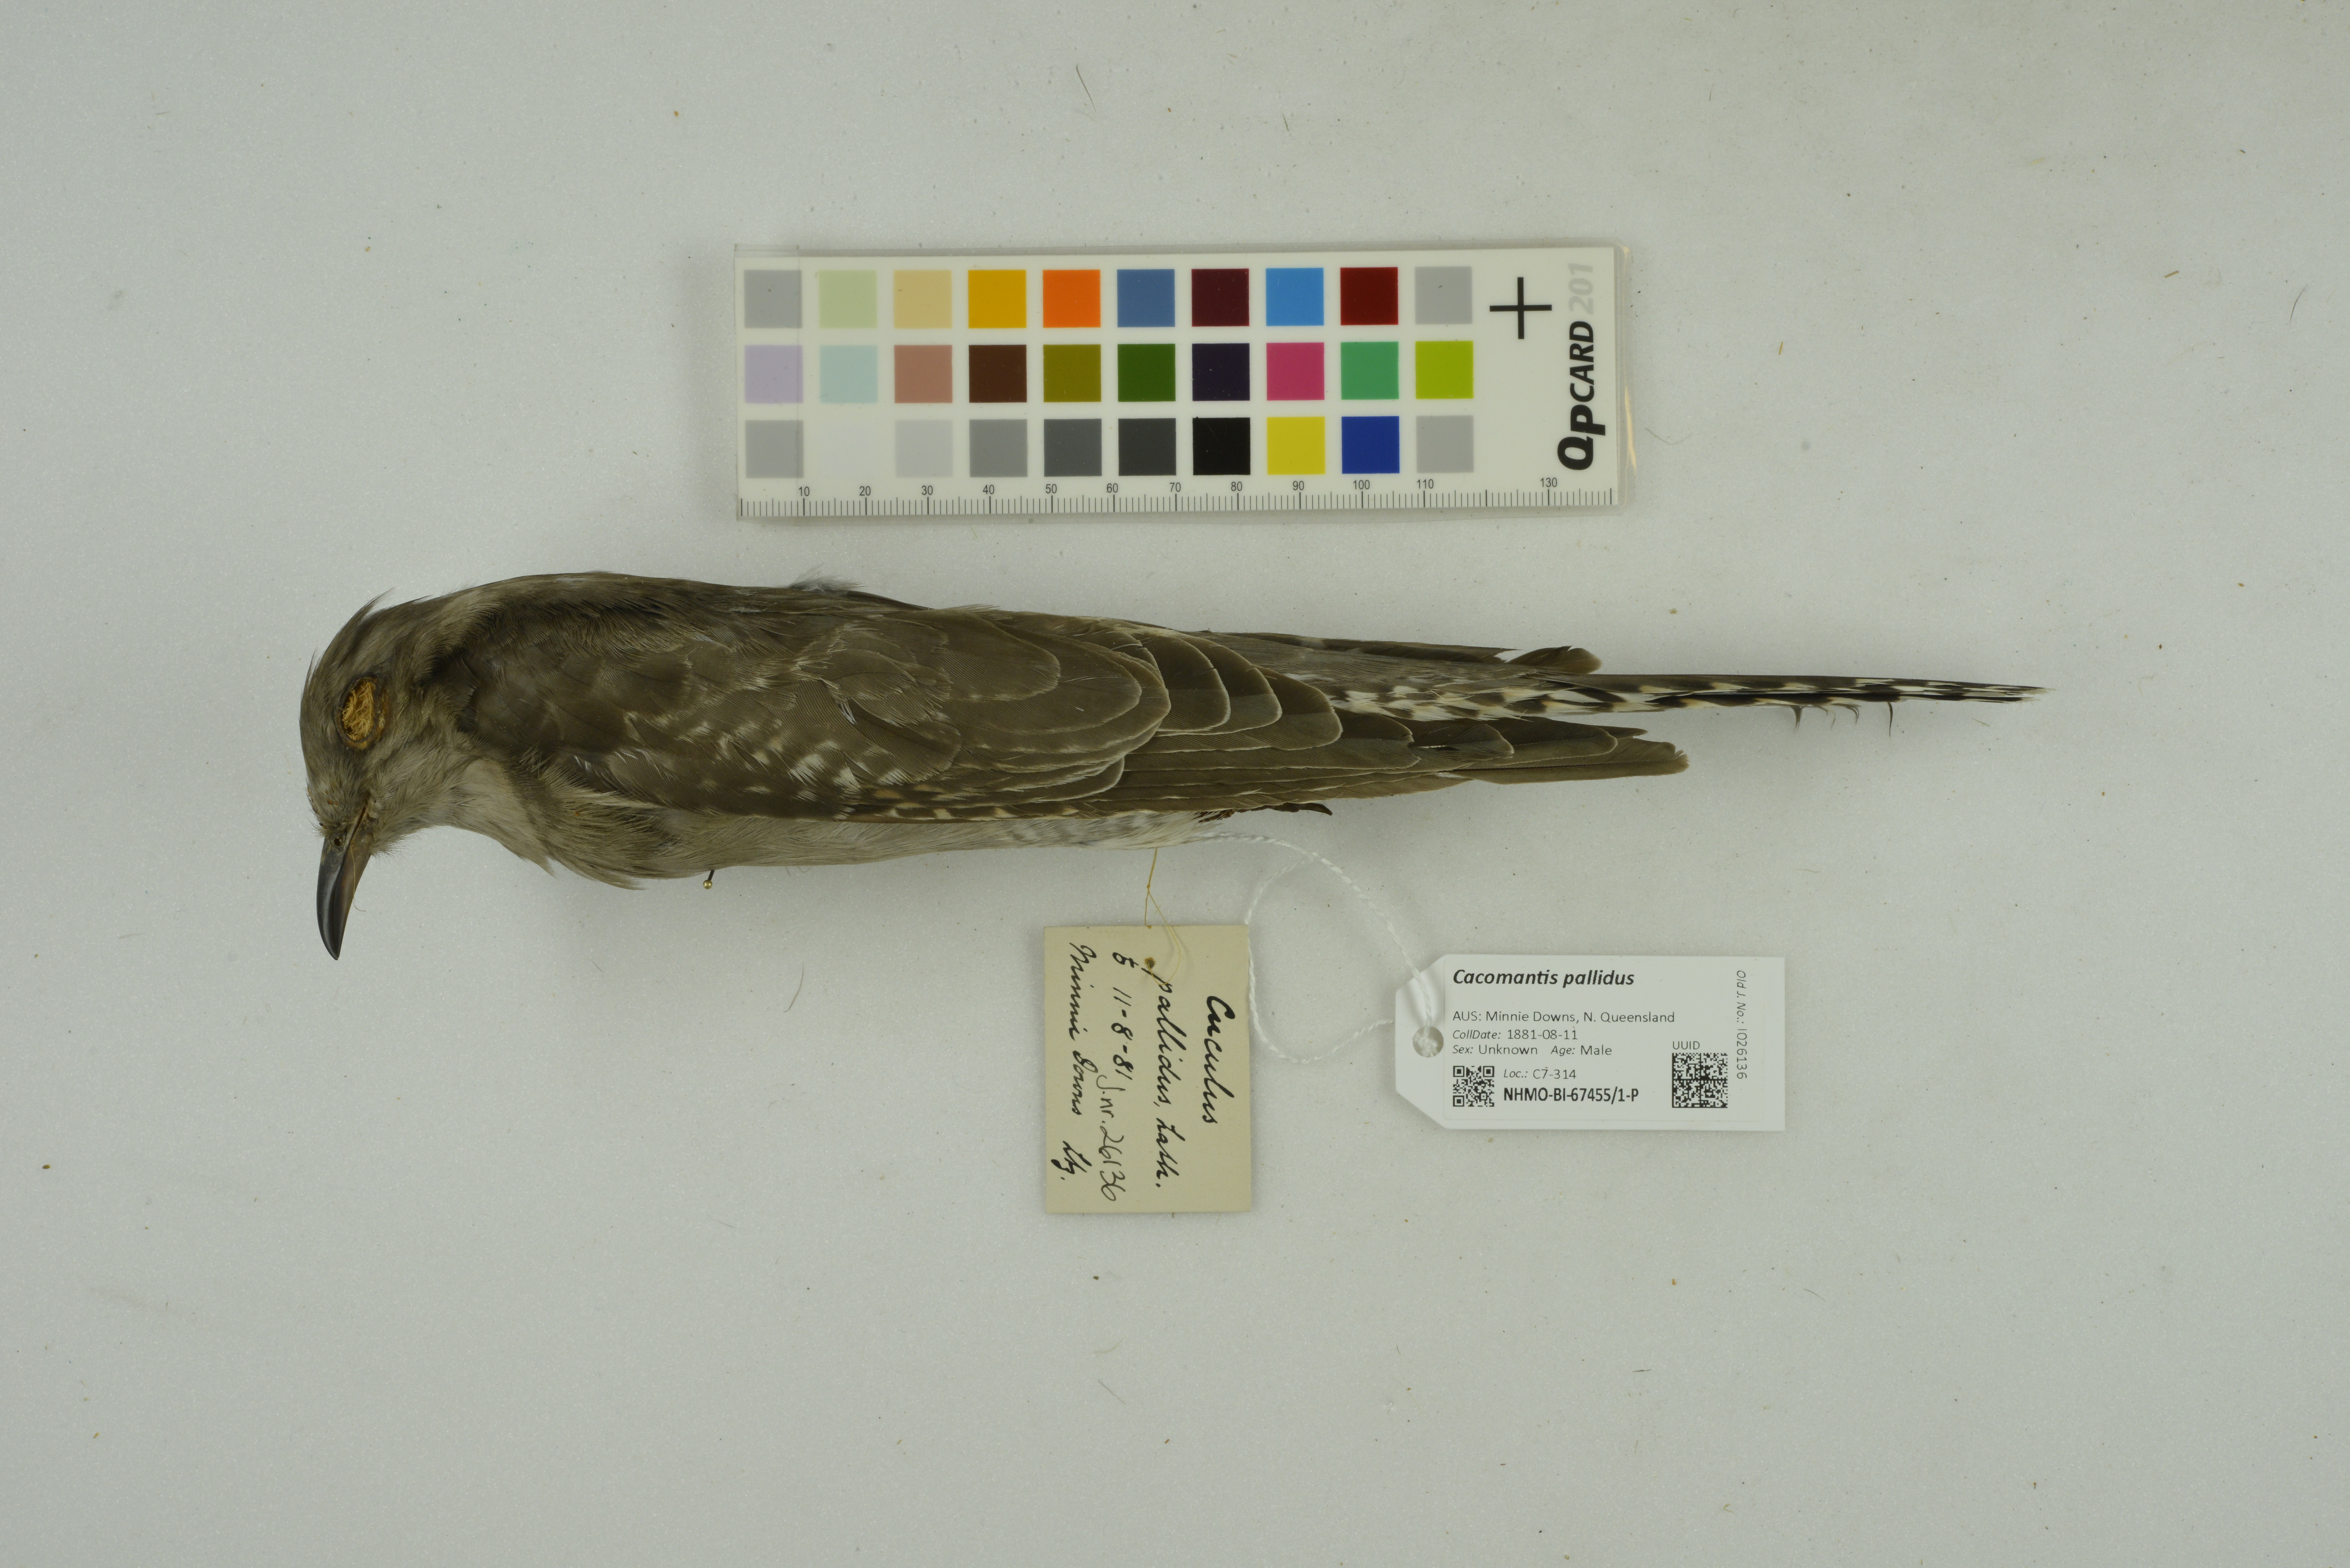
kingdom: Animalia
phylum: Chordata
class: Aves
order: Cuculiformes
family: Cuculidae
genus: Cuculus
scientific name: Cuculus pallidus
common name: Pallid cuckoo
